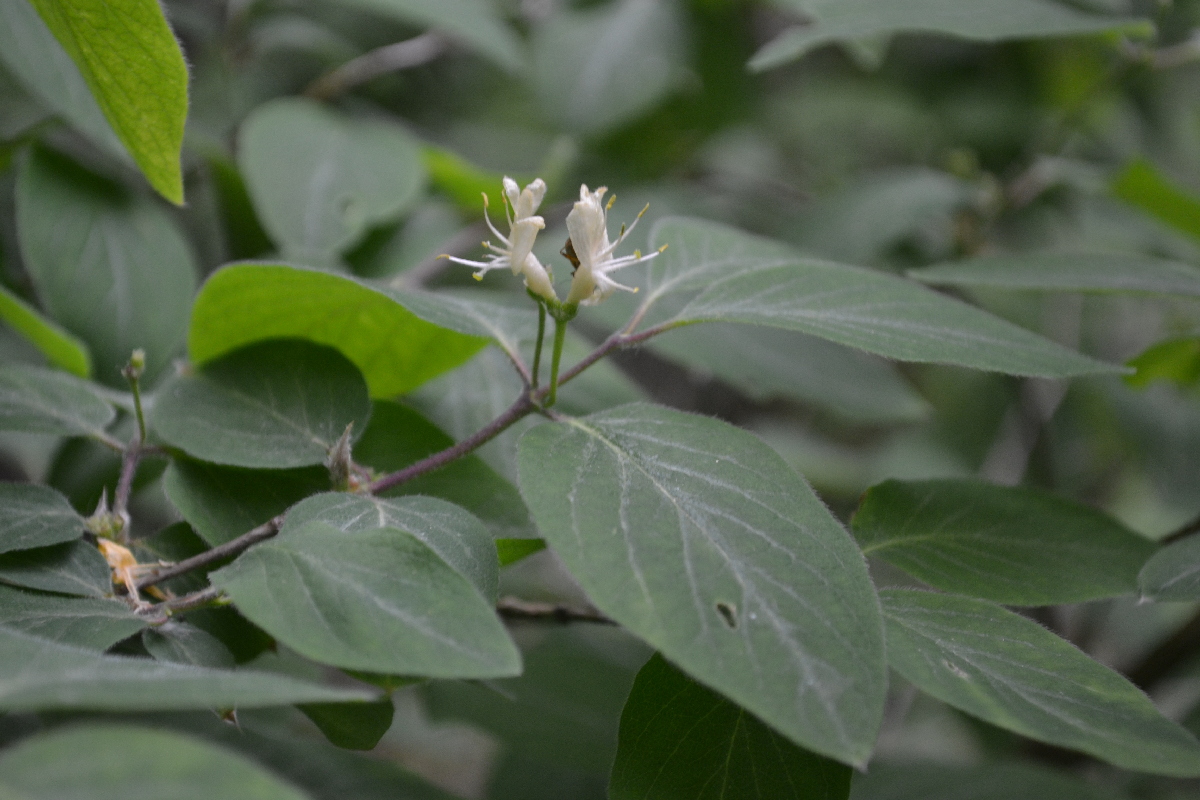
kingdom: Plantae
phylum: Tracheophyta
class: Magnoliopsida
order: Dipsacales
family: Caprifoliaceae
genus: Lonicera
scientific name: Lonicera tatarica
